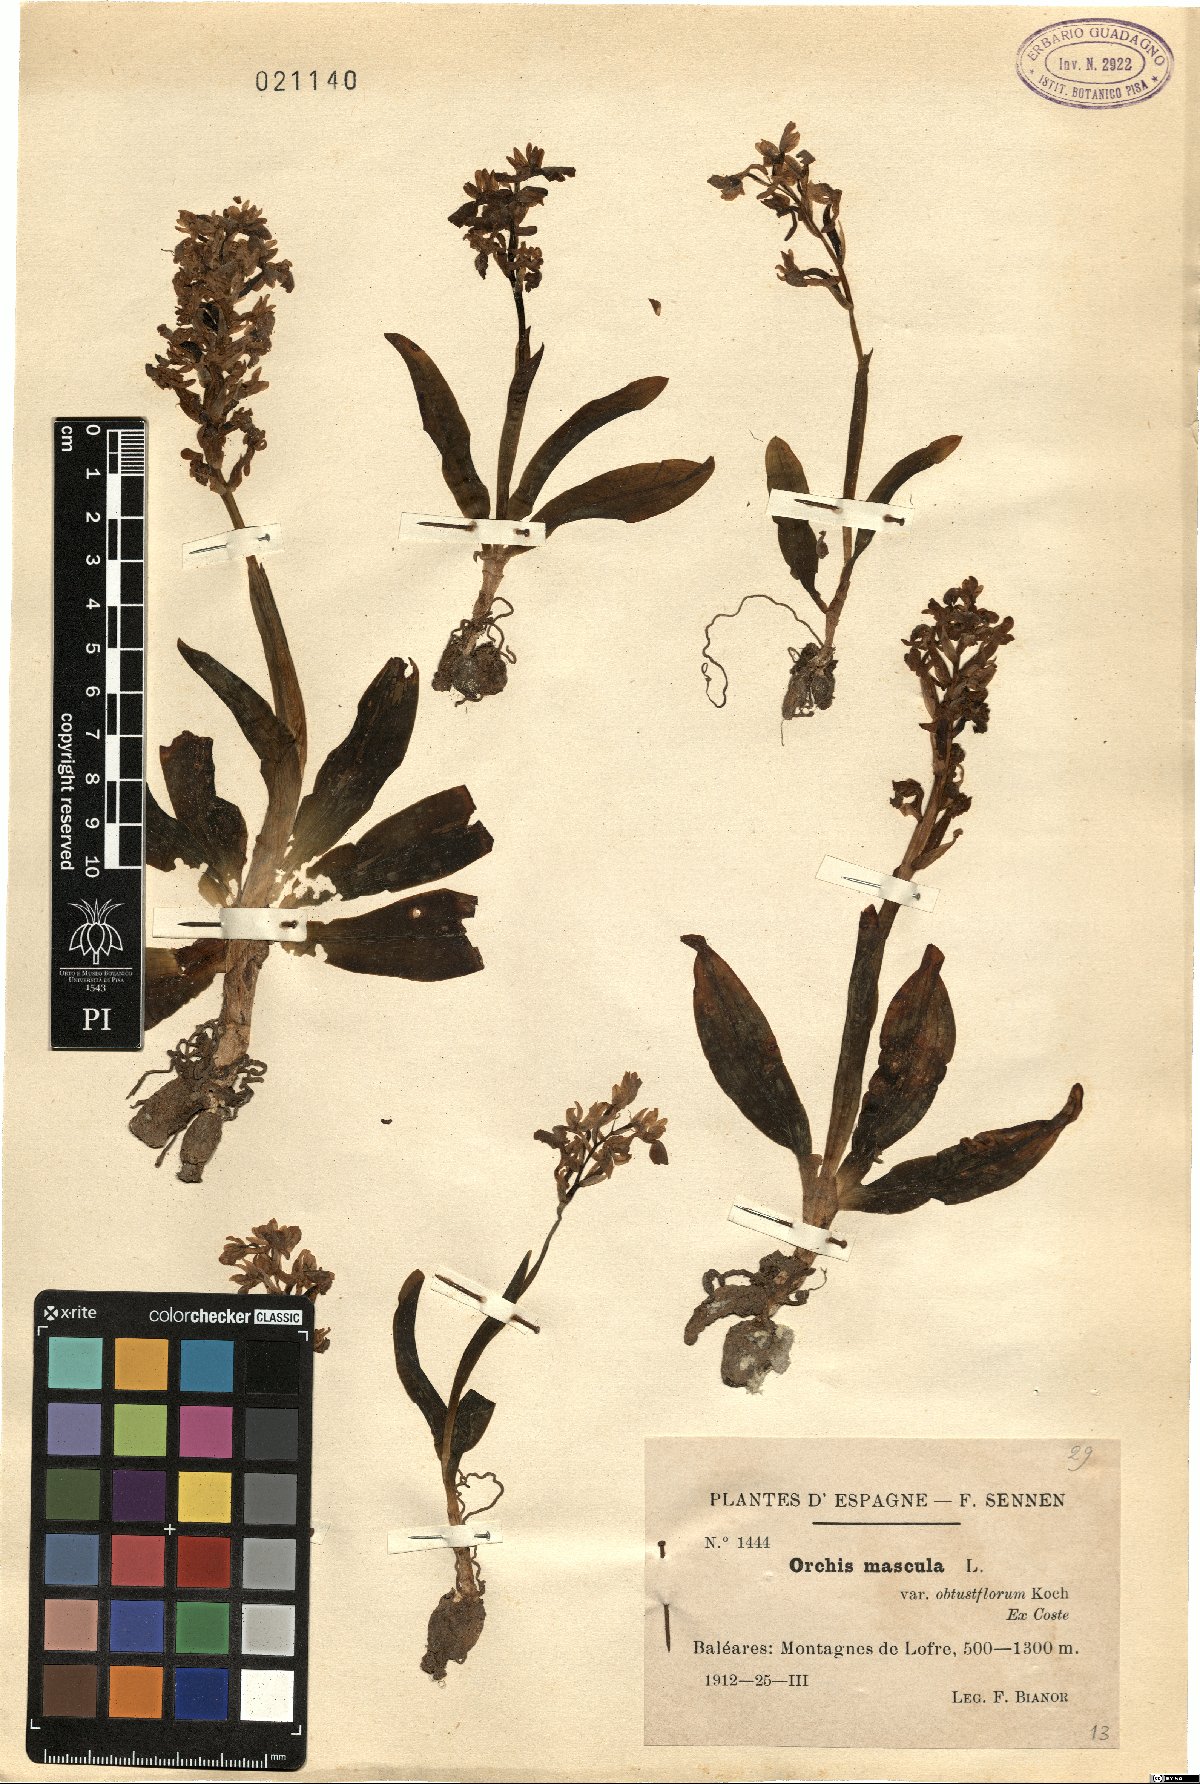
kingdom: Plantae
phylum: Tracheophyta
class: Liliopsida
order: Asparagales
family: Orchidaceae
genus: Orchis
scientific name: Orchis mascula
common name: Early-purple orchid
